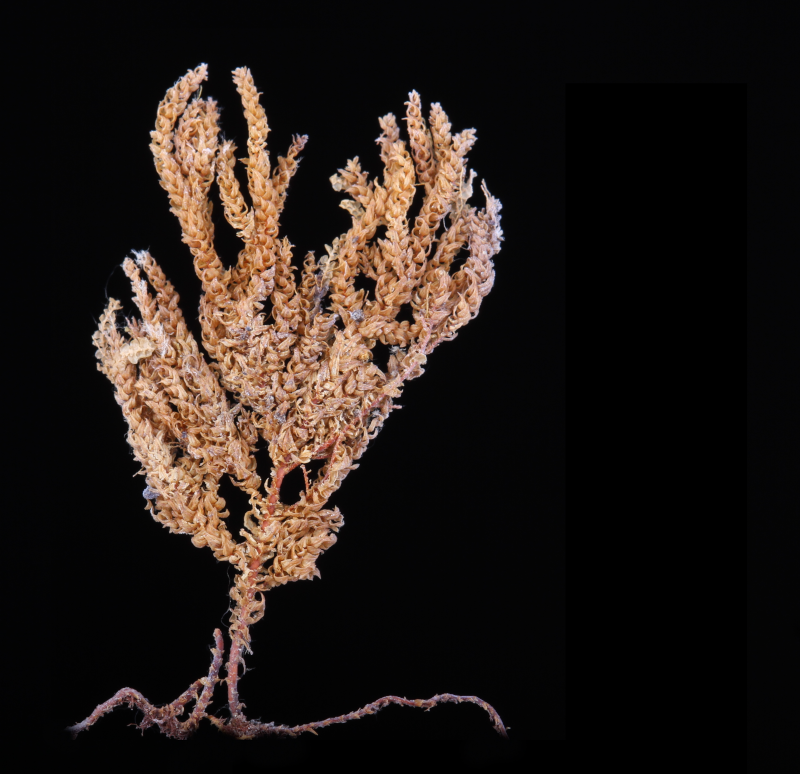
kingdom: Plantae
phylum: Bryophyta
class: Bryopsida
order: Hypnales
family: Neckeraceae
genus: Pinnatella
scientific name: Pinnatella alopecuroides
